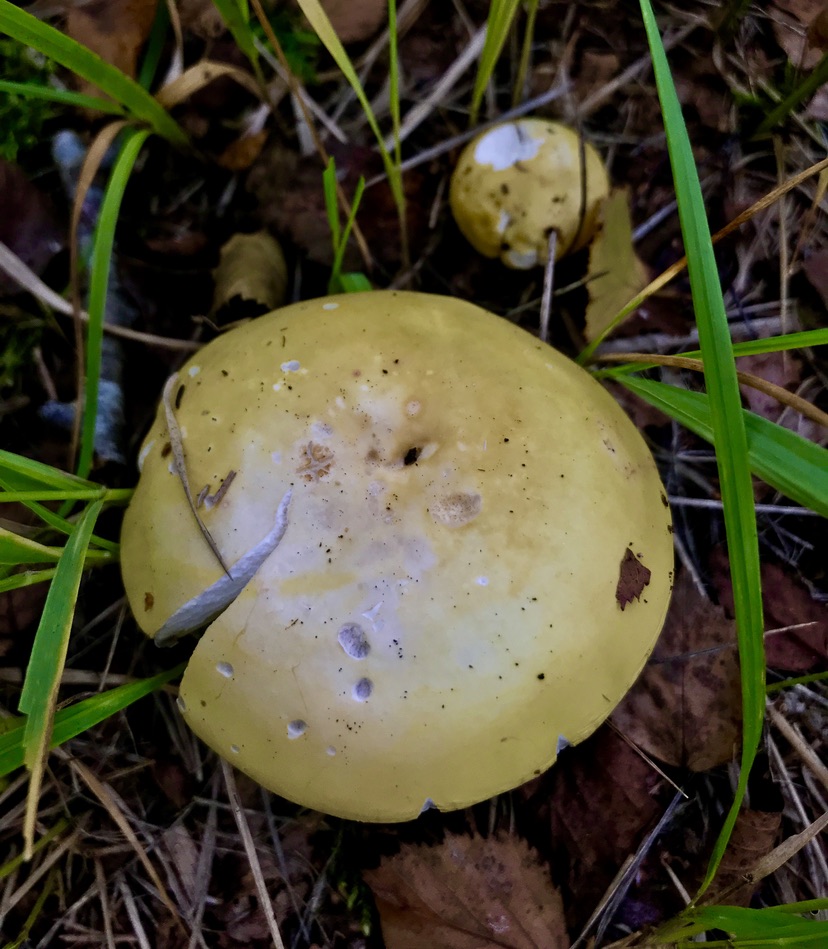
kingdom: Fungi
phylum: Basidiomycota
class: Agaricomycetes
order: Russulales
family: Russulaceae
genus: Russula
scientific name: Russula claroflava
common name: birke-skørhat
